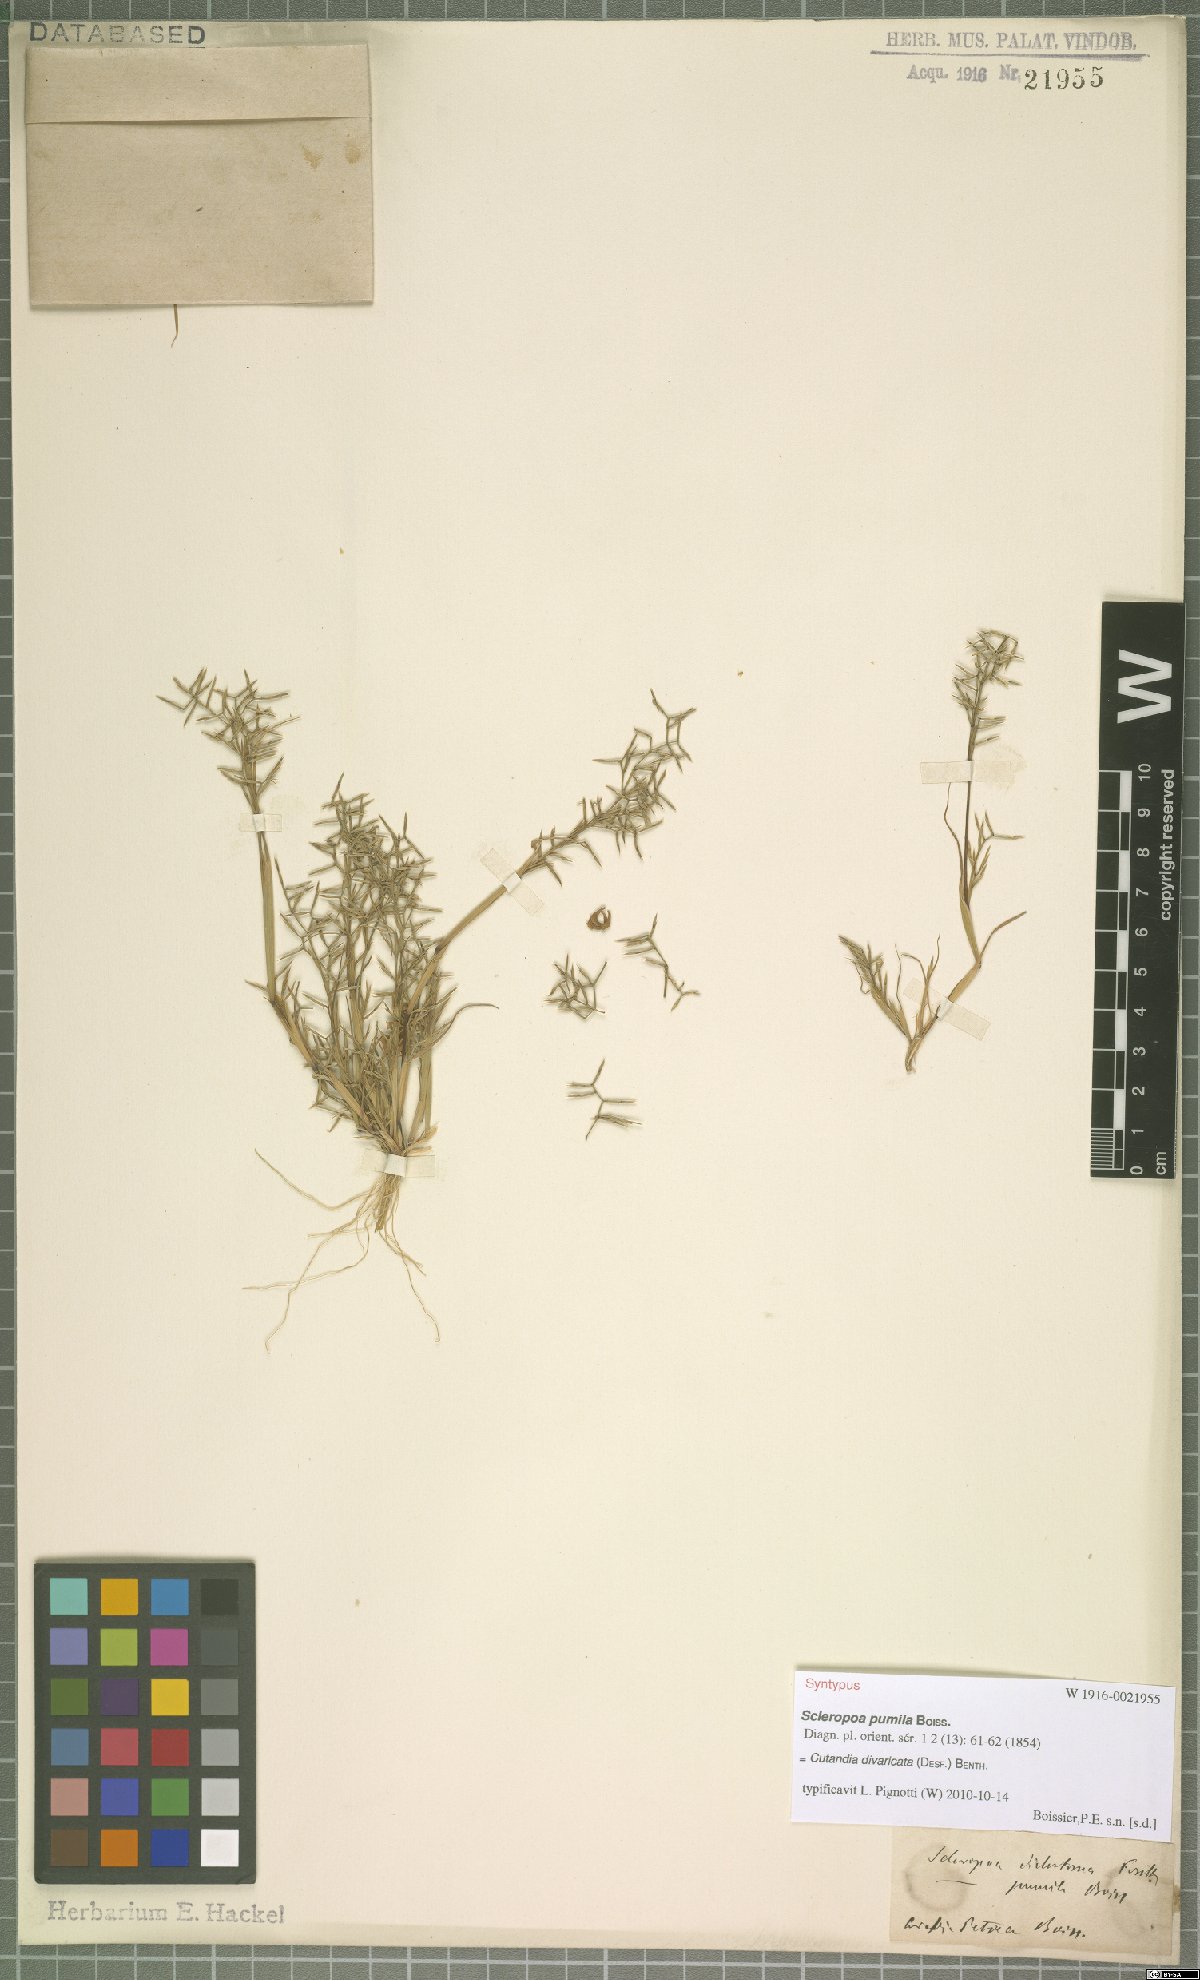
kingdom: Plantae
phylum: Tracheophyta
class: Liliopsida
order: Poales
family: Poaceae
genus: Cutandia
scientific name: Cutandia divaricata
